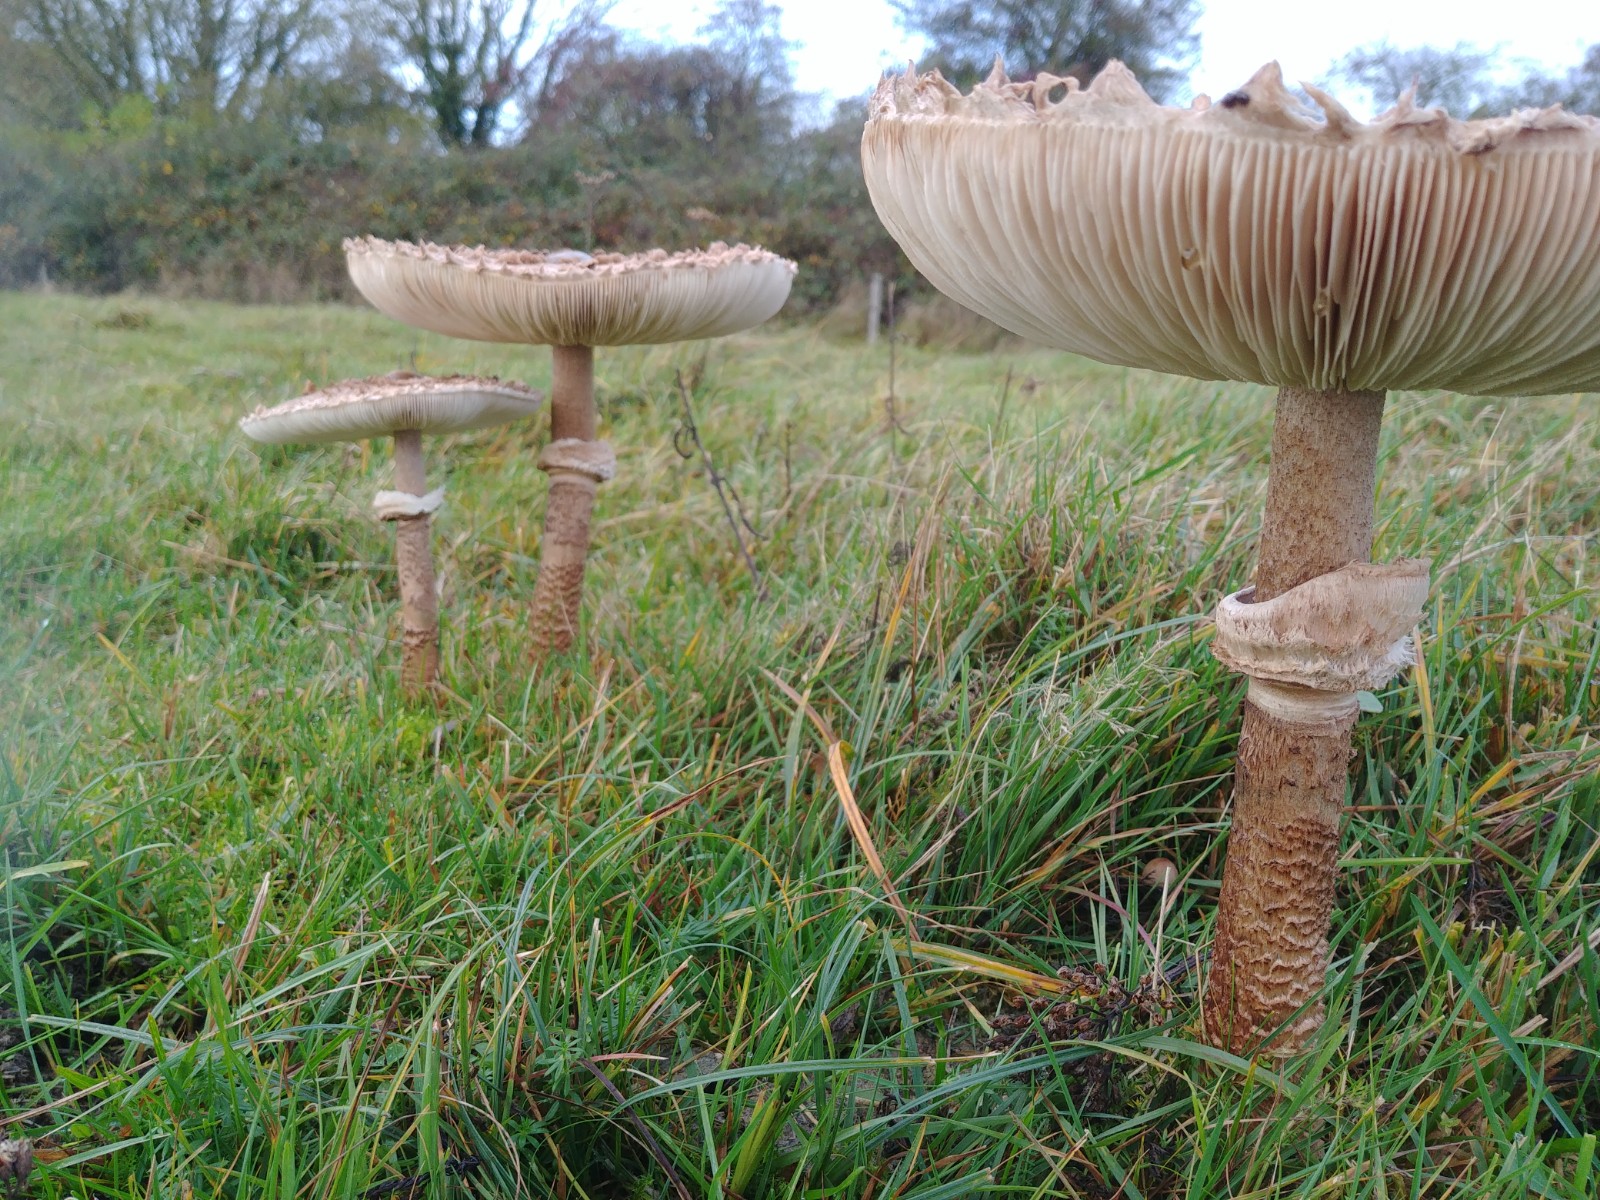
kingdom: Fungi
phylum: Basidiomycota
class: Agaricomycetes
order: Agaricales
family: Agaricaceae
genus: Macrolepiota
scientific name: Macrolepiota procera
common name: stor kæmpeparasolhat
